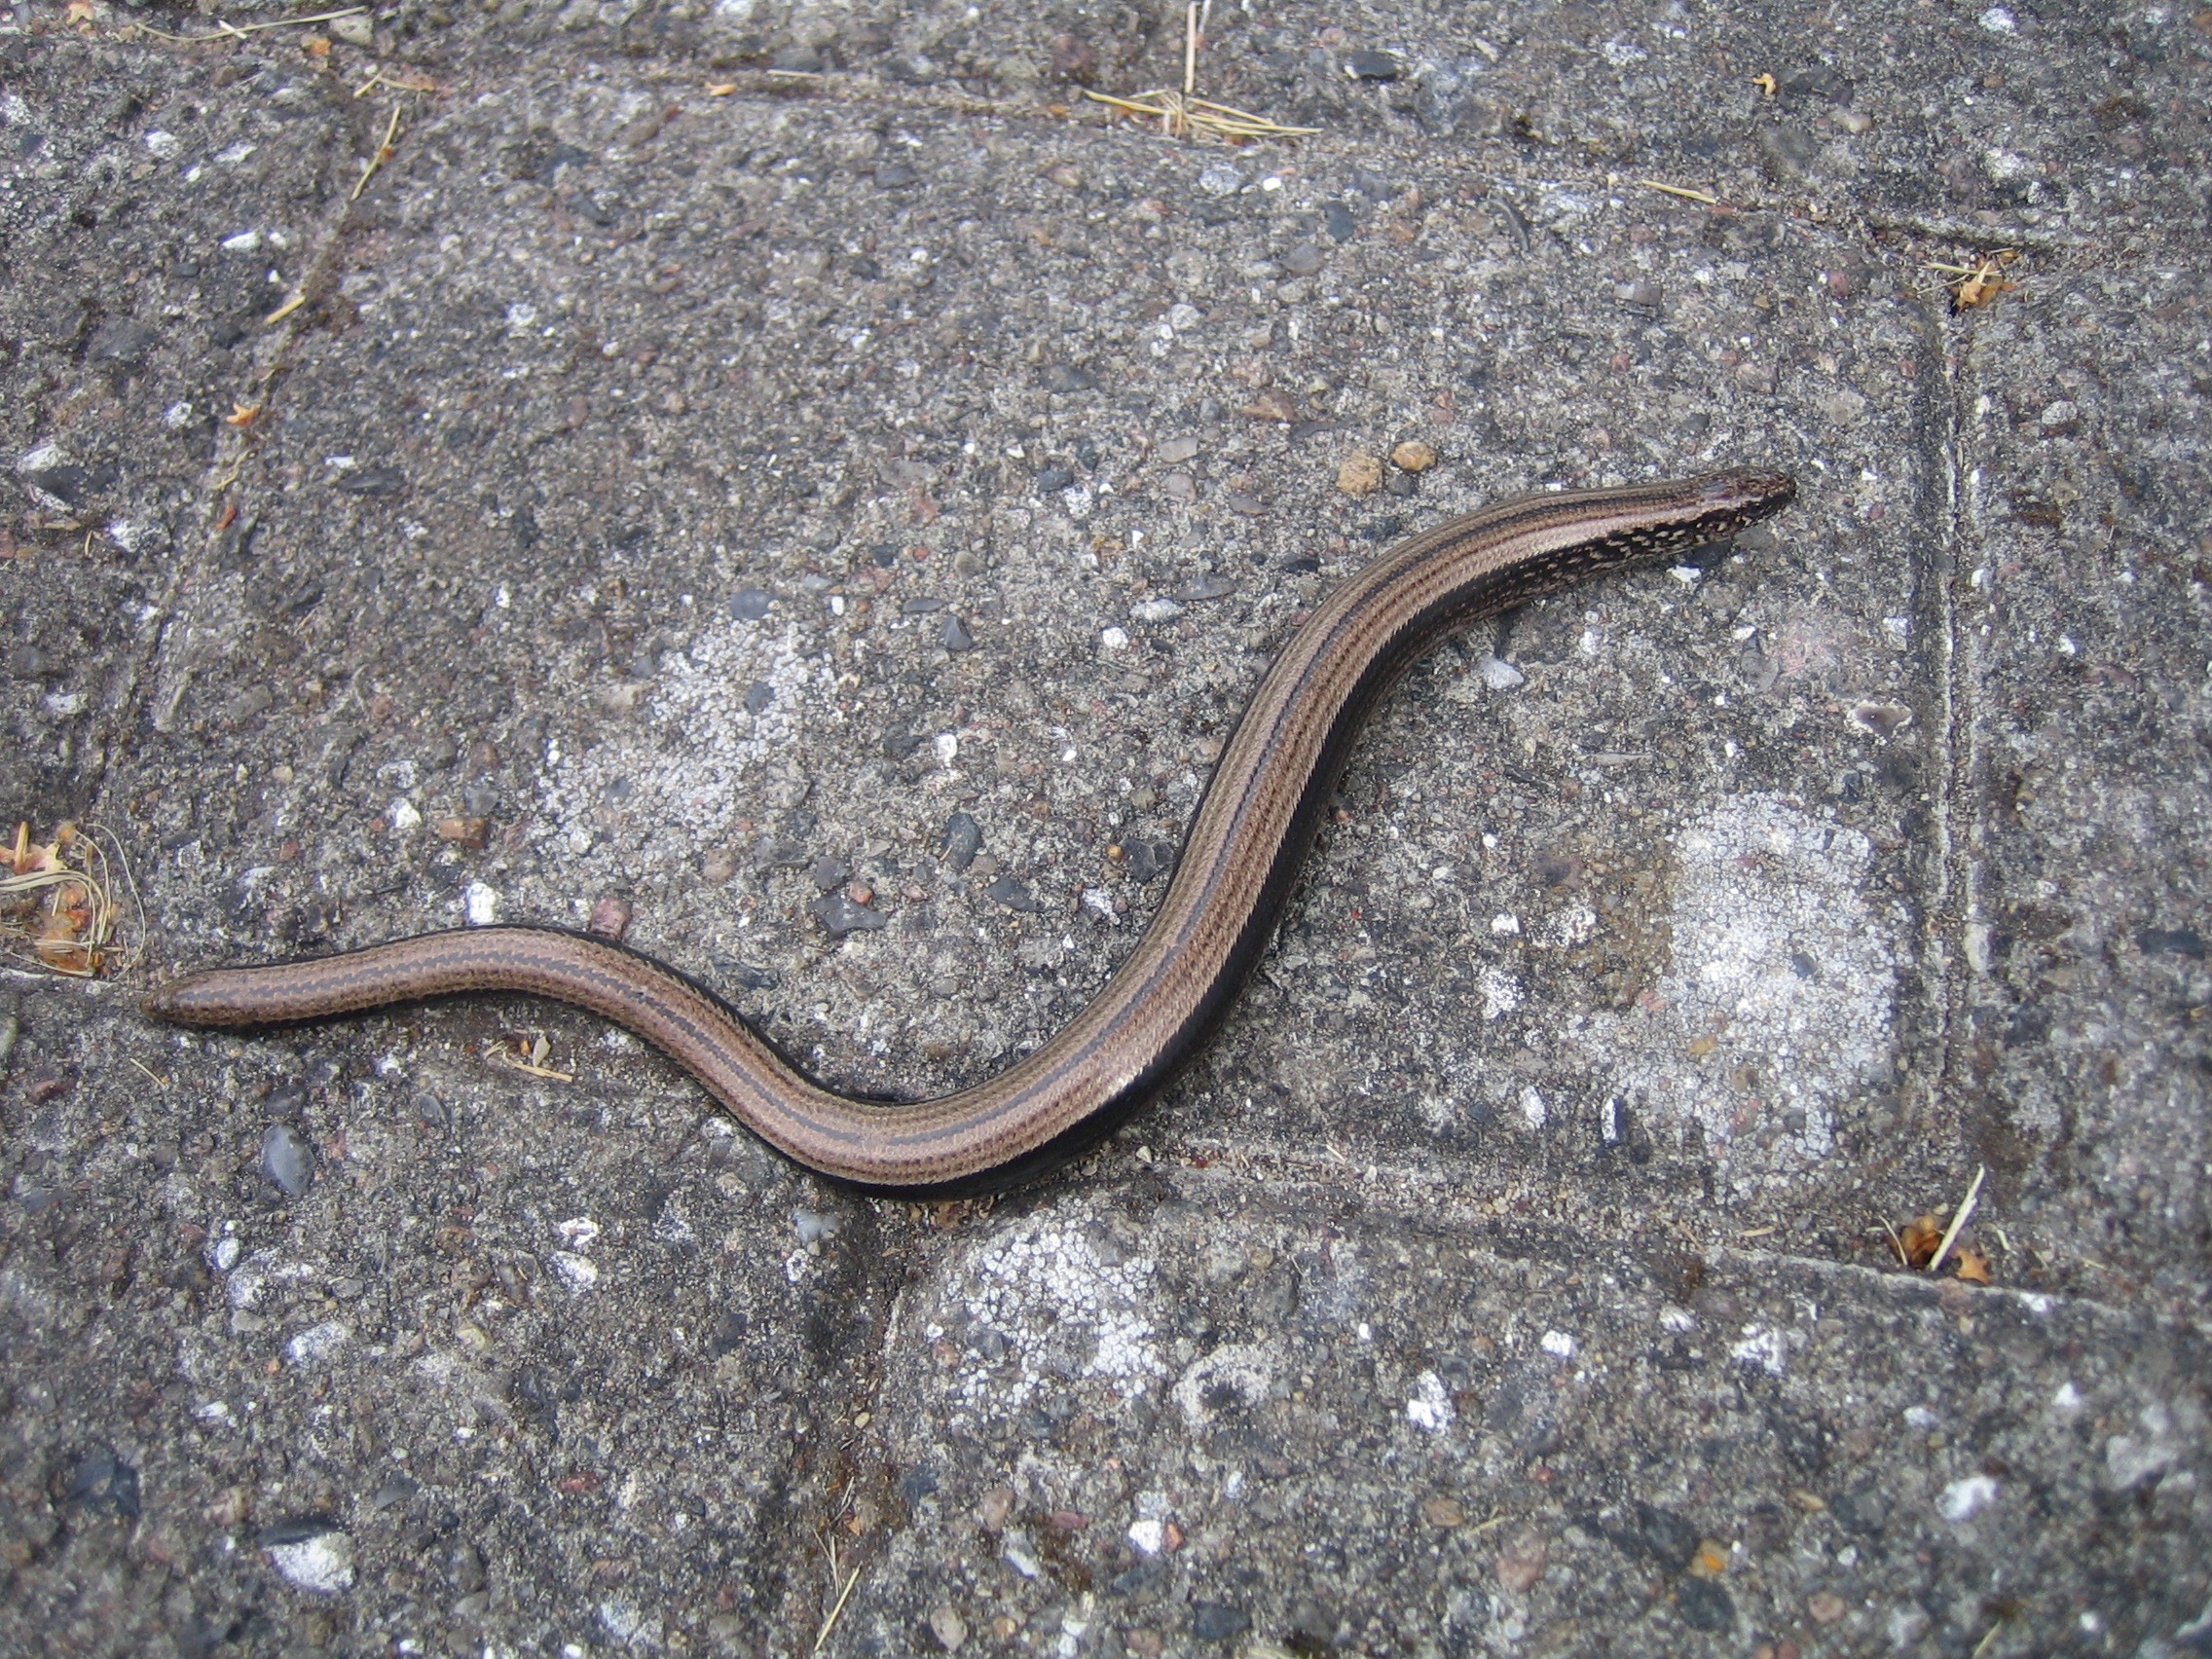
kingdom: Animalia
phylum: Chordata
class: Squamata
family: Anguidae
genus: Anguis
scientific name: Anguis fragilis
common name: Stålorm
